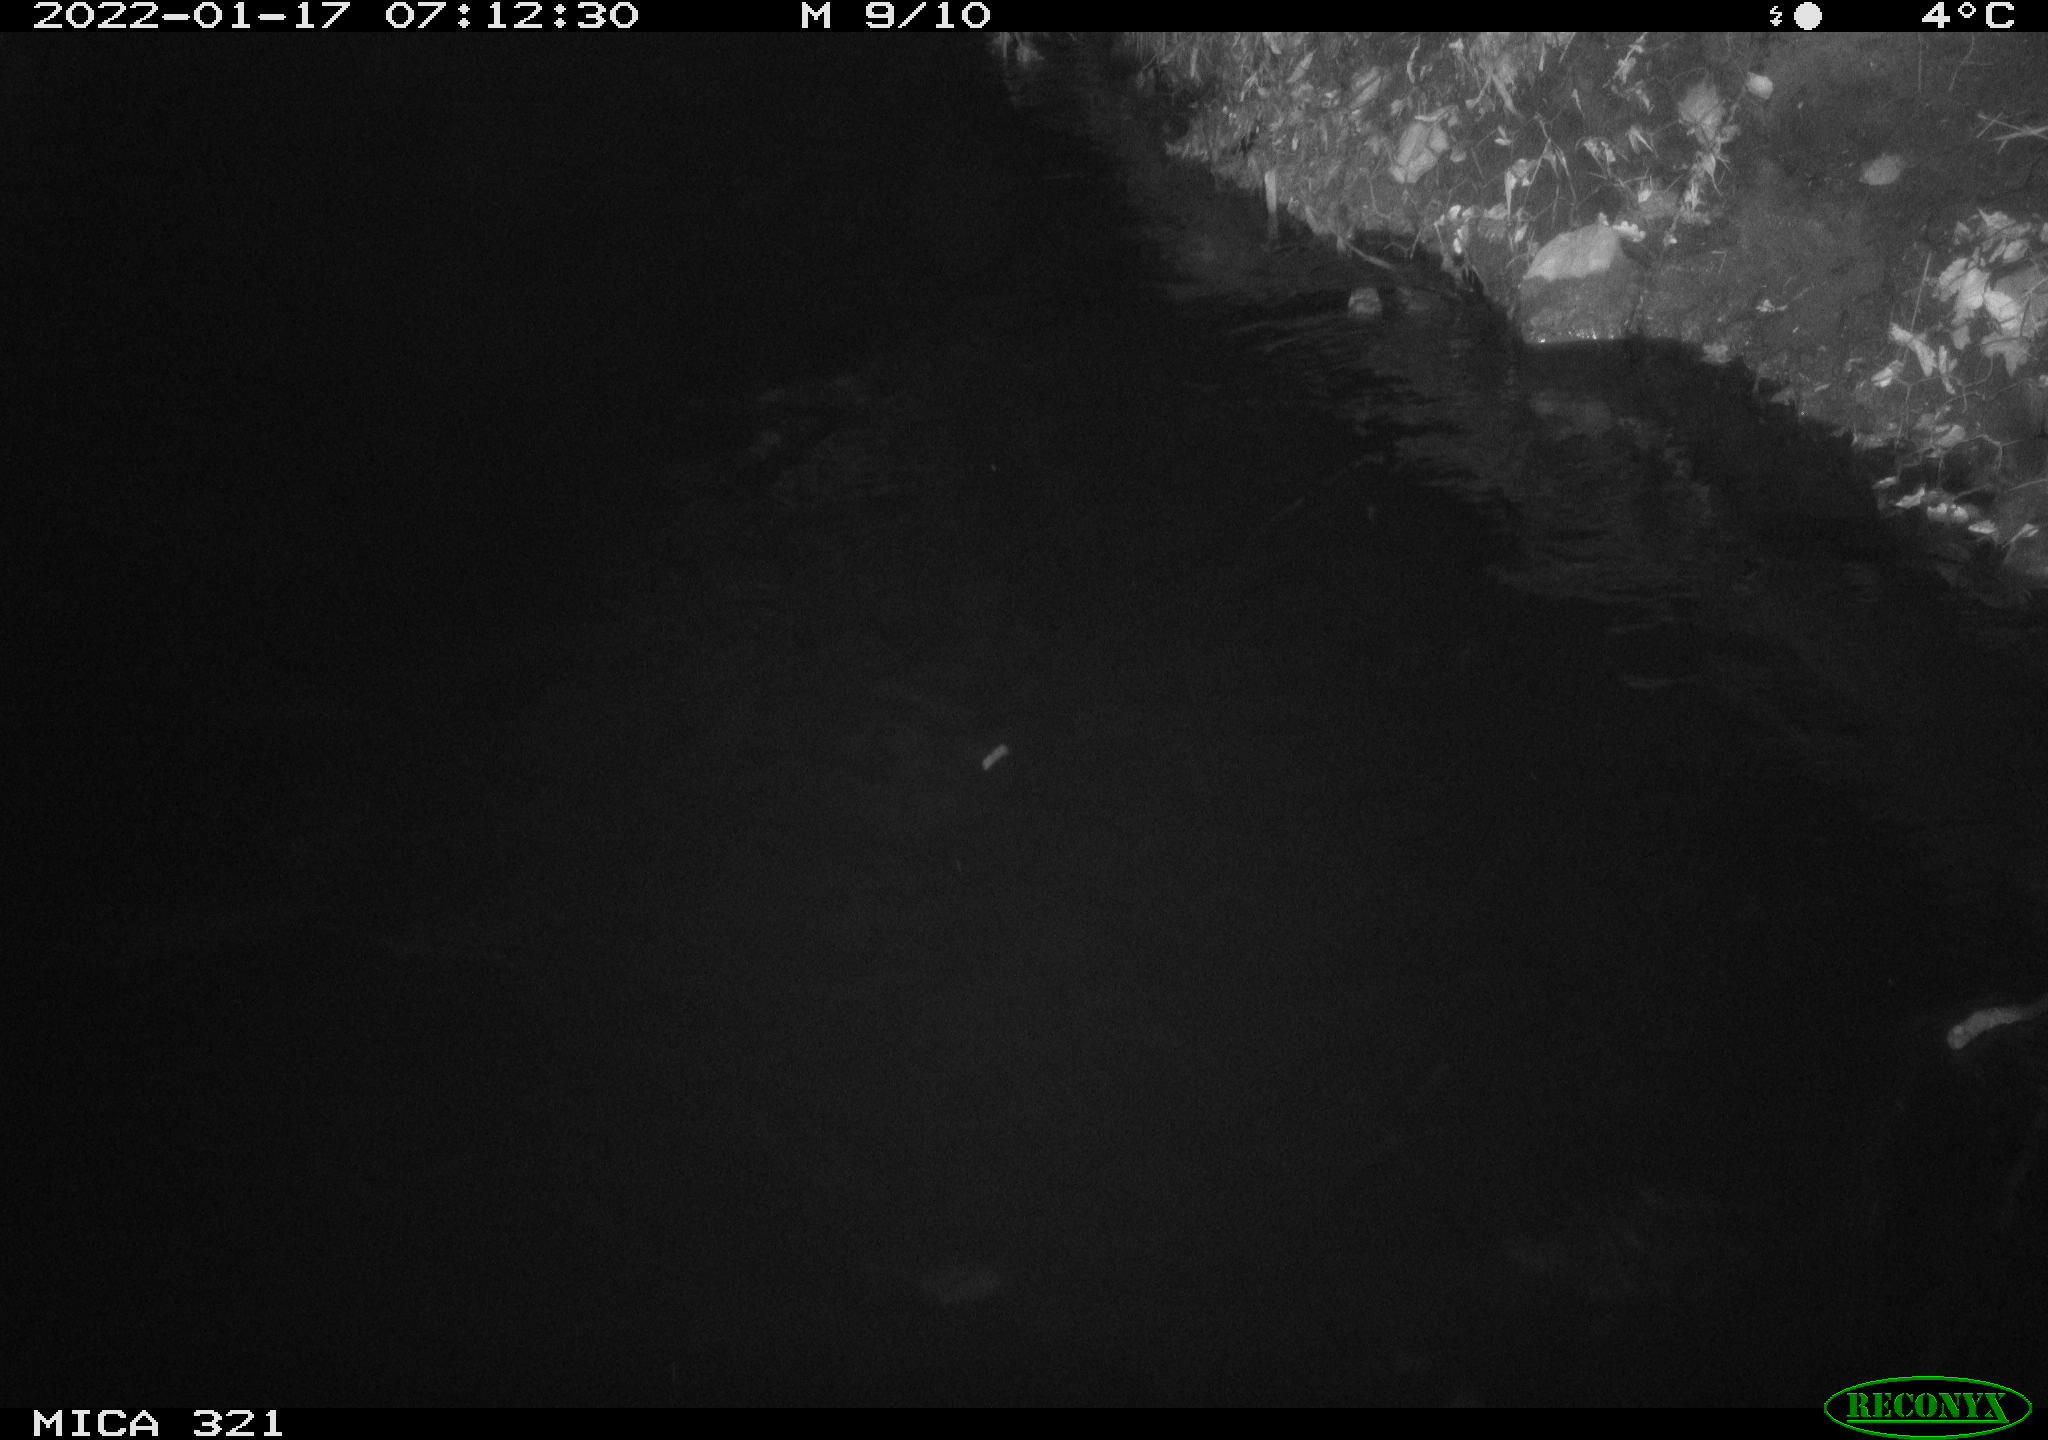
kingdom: Animalia
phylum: Chordata
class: Aves
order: Anseriformes
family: Anatidae
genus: Anas
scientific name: Anas
